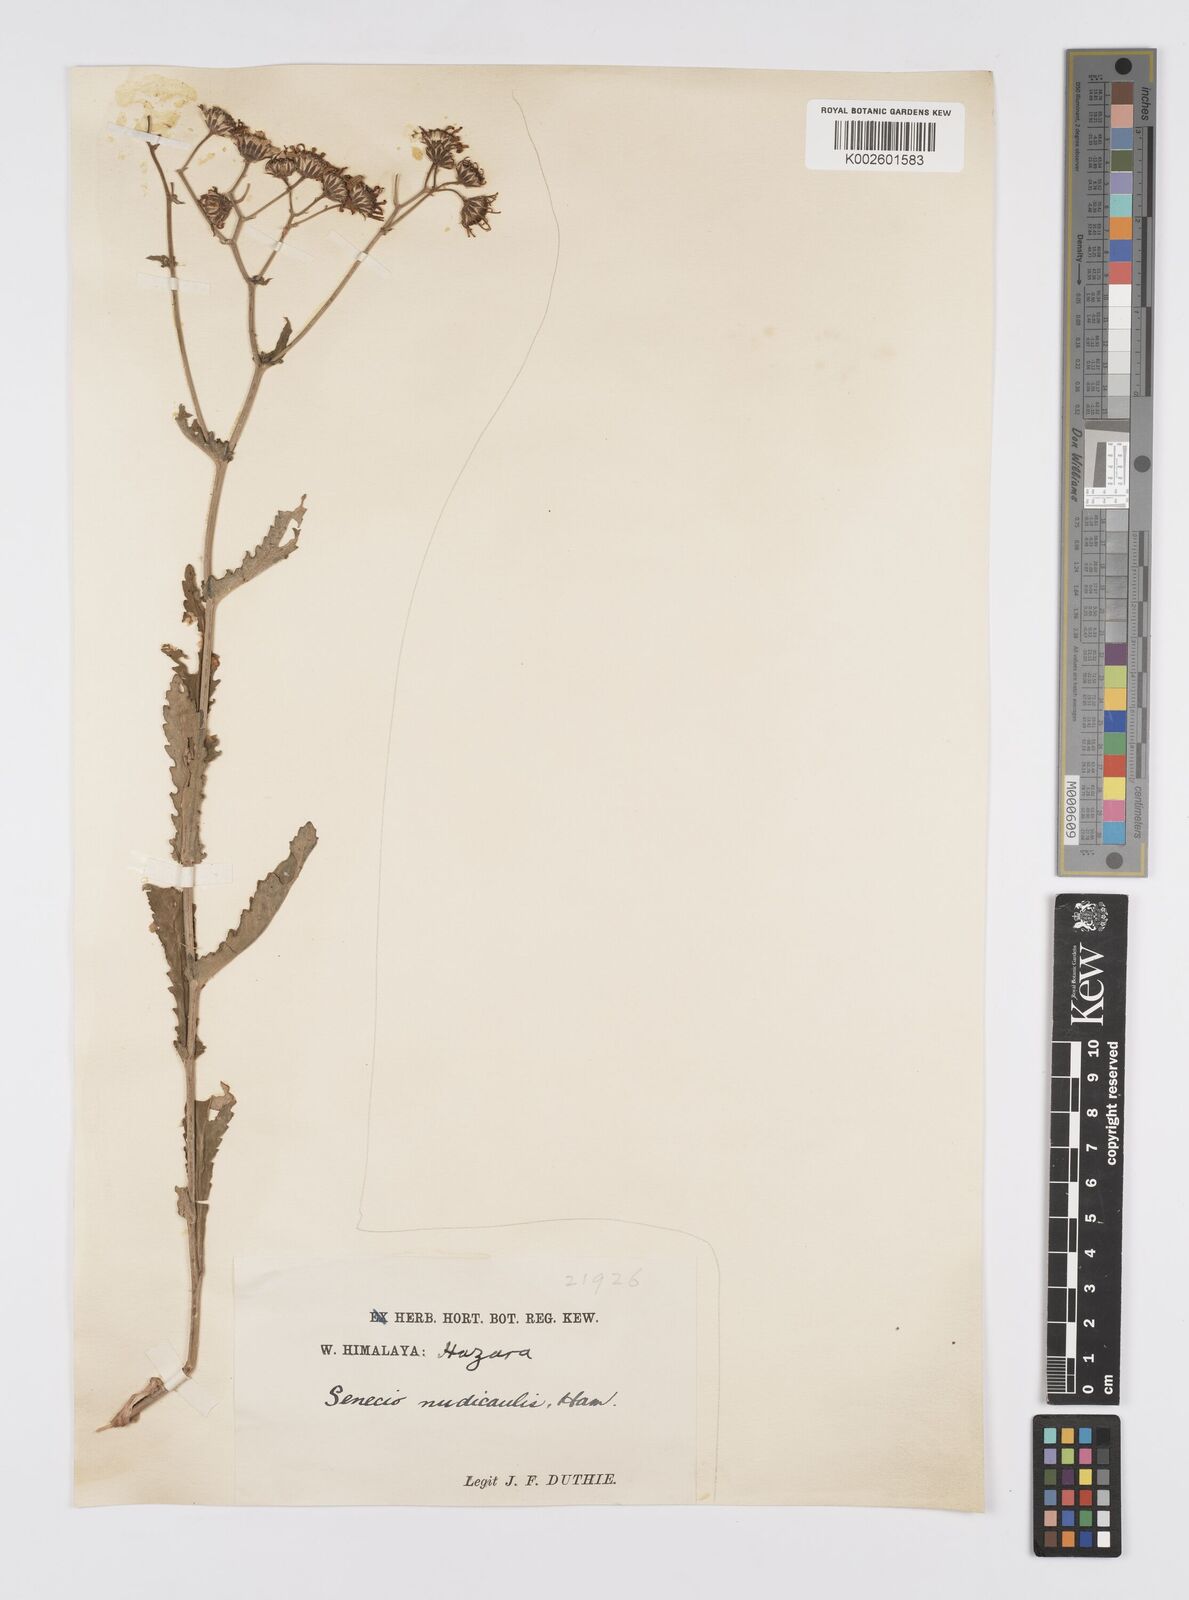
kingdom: Plantae
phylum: Tracheophyta
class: Magnoliopsida
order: Asterales
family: Asteraceae
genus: Jacobaea
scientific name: Jacobaea nudicaulis
